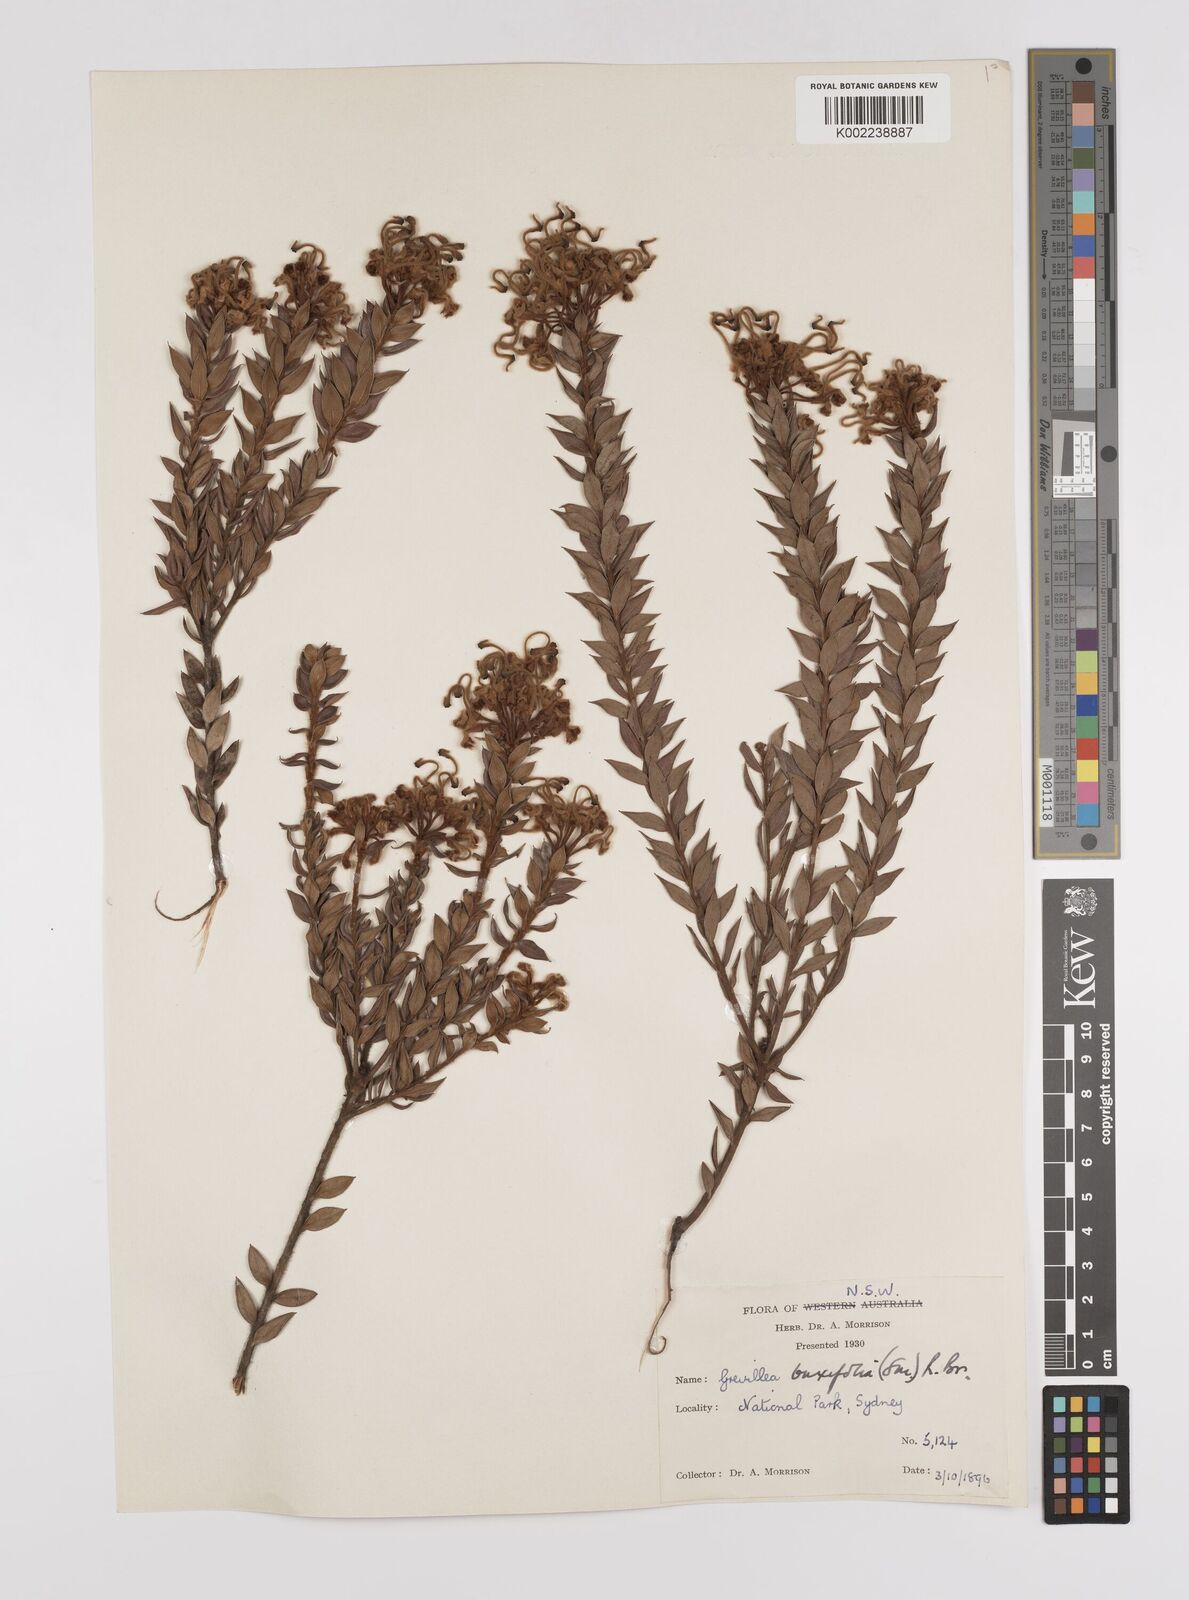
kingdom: Plantae
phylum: Tracheophyta
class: Magnoliopsida
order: Proteales
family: Proteaceae
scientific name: Proteaceae
